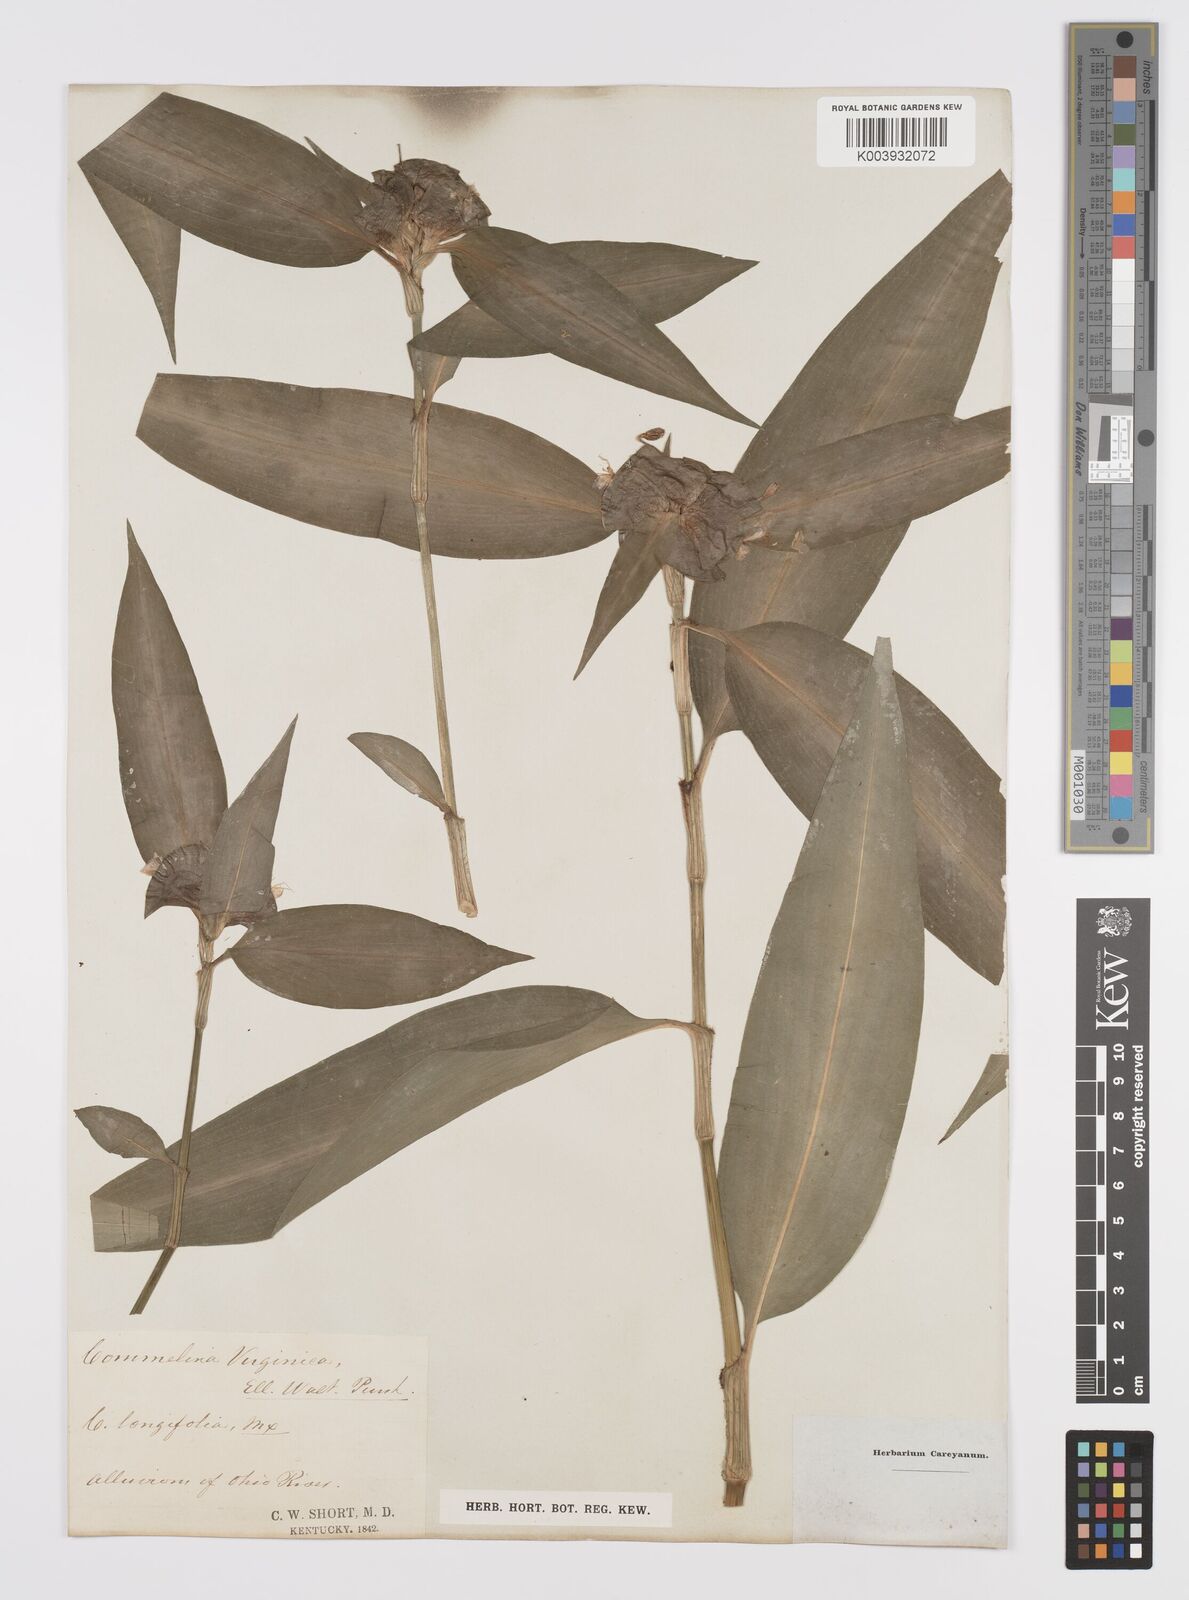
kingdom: Plantae
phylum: Tracheophyta
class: Liliopsida
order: Commelinales
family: Commelinaceae
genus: Commelina
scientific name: Commelina virginica
